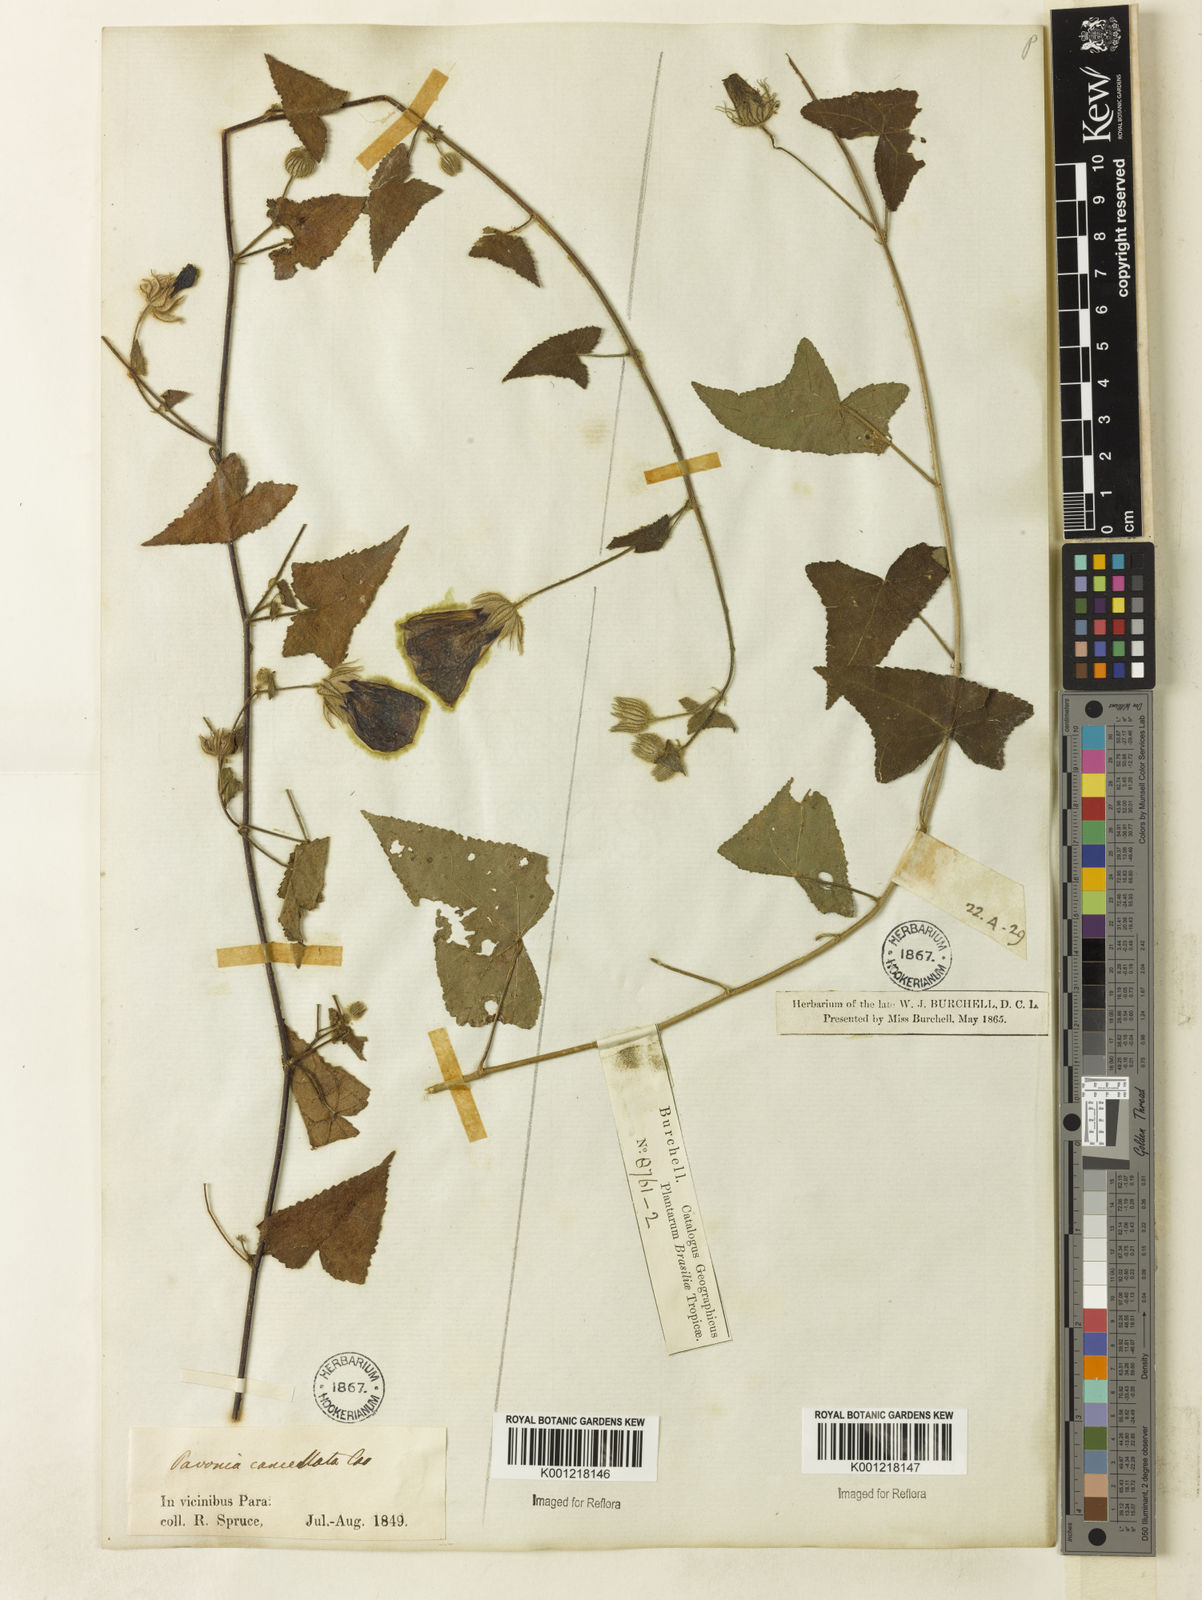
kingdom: Plantae
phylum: Tracheophyta
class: Magnoliopsida
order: Malvales
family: Malvaceae
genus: Pavonia
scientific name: Pavonia cancellata
